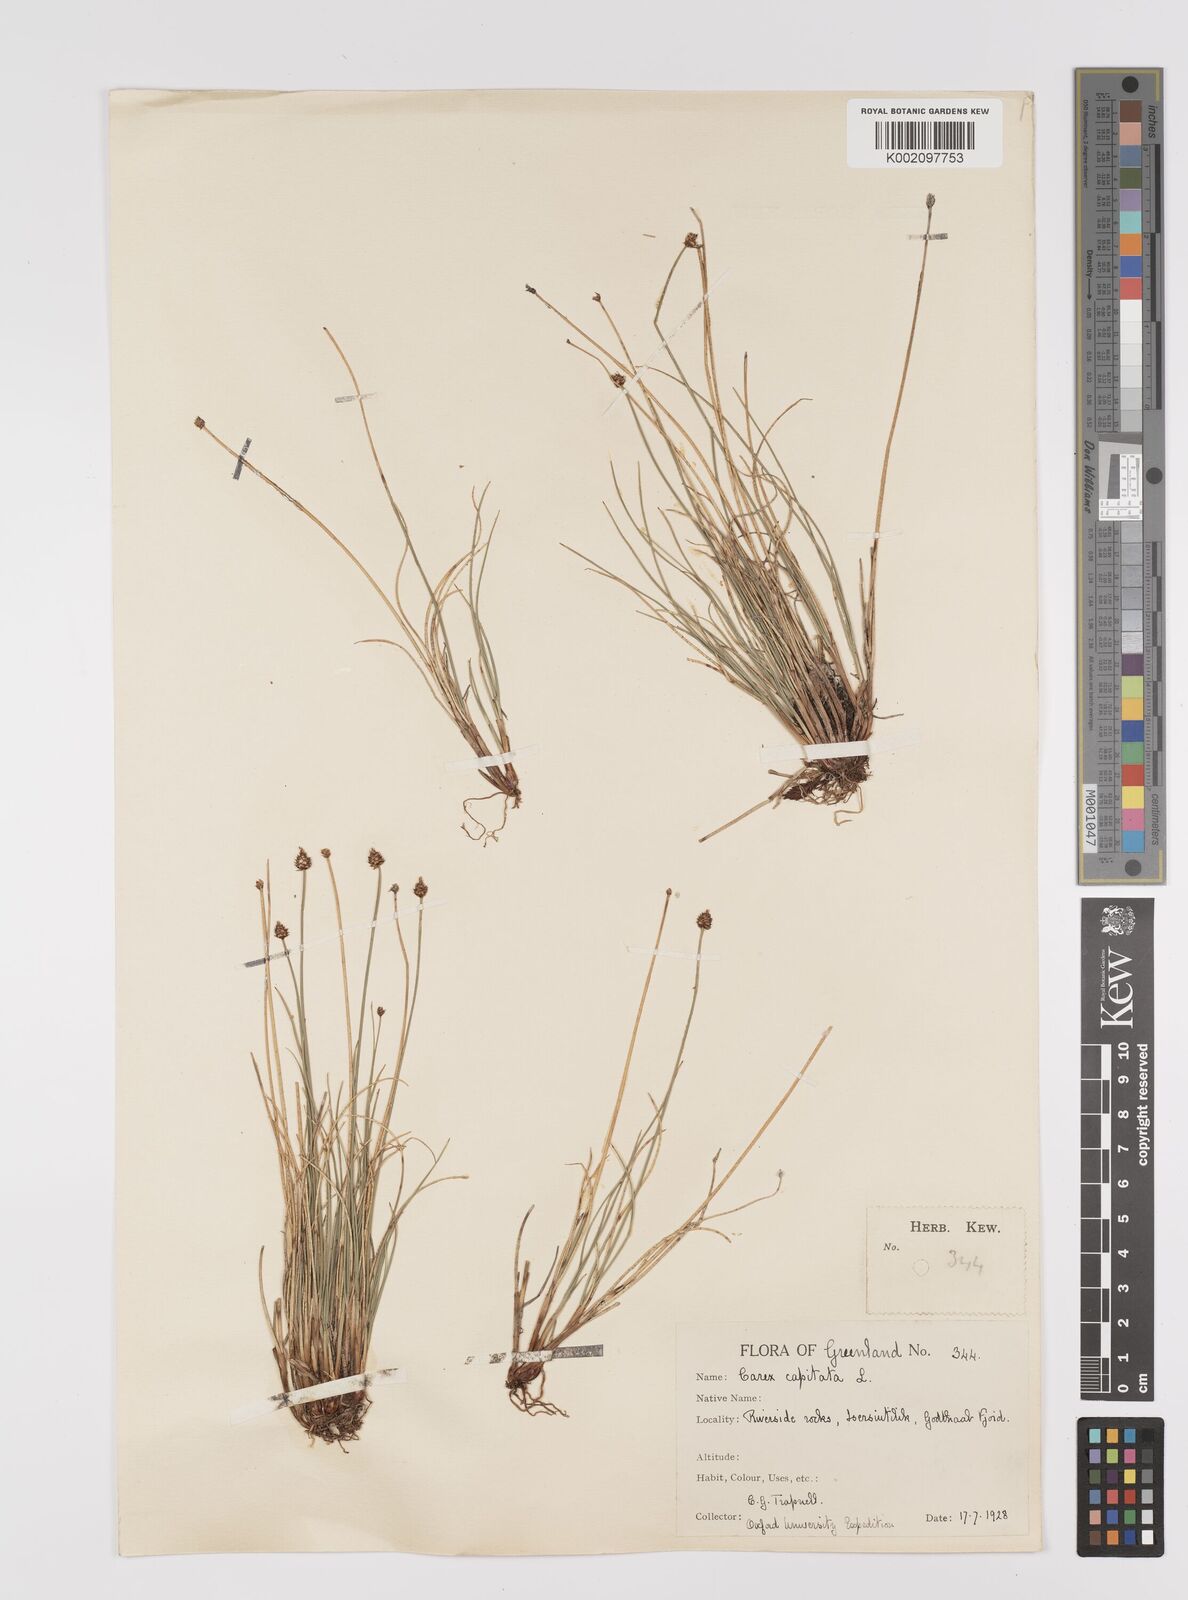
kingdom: Plantae
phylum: Tracheophyta
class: Liliopsida
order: Poales
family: Cyperaceae
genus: Carex
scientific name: Carex capitata
